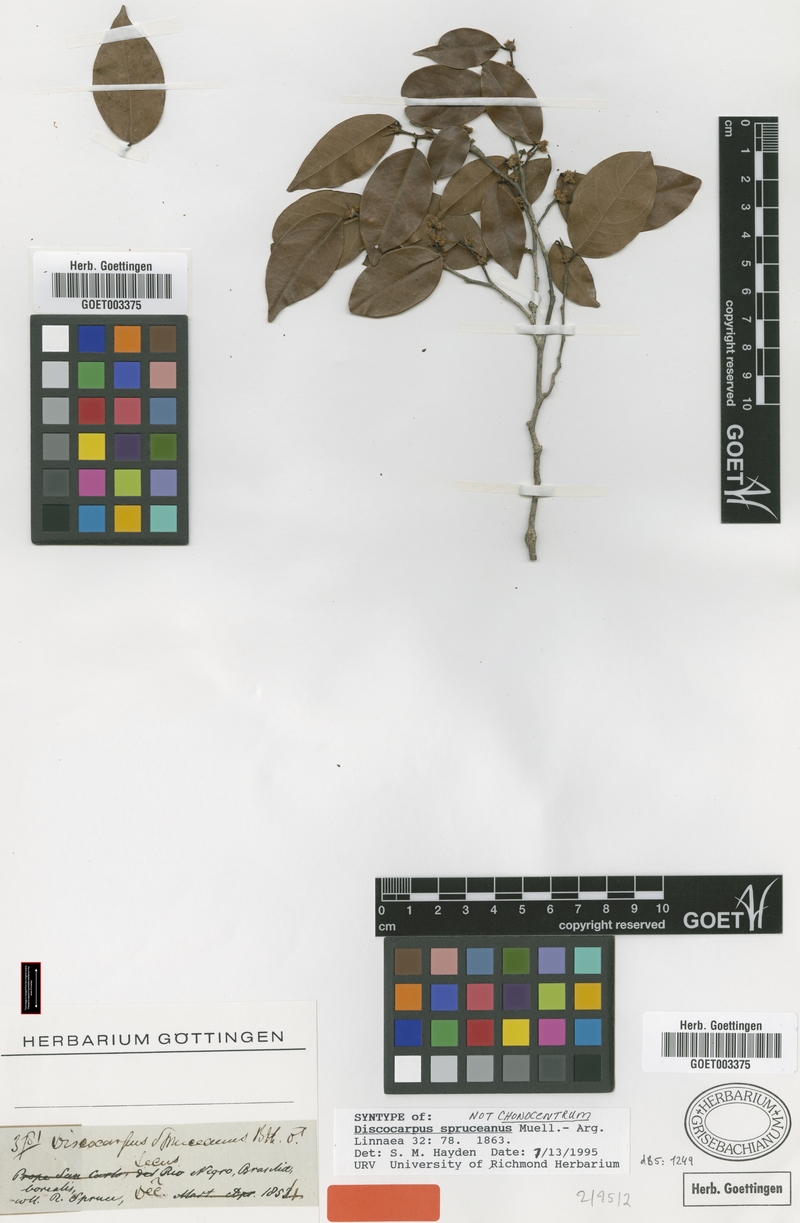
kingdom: Plantae
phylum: Tracheophyta
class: Magnoliopsida
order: Malpighiales
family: Phyllanthaceae
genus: Discocarpus
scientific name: Discocarpus spruceanus
